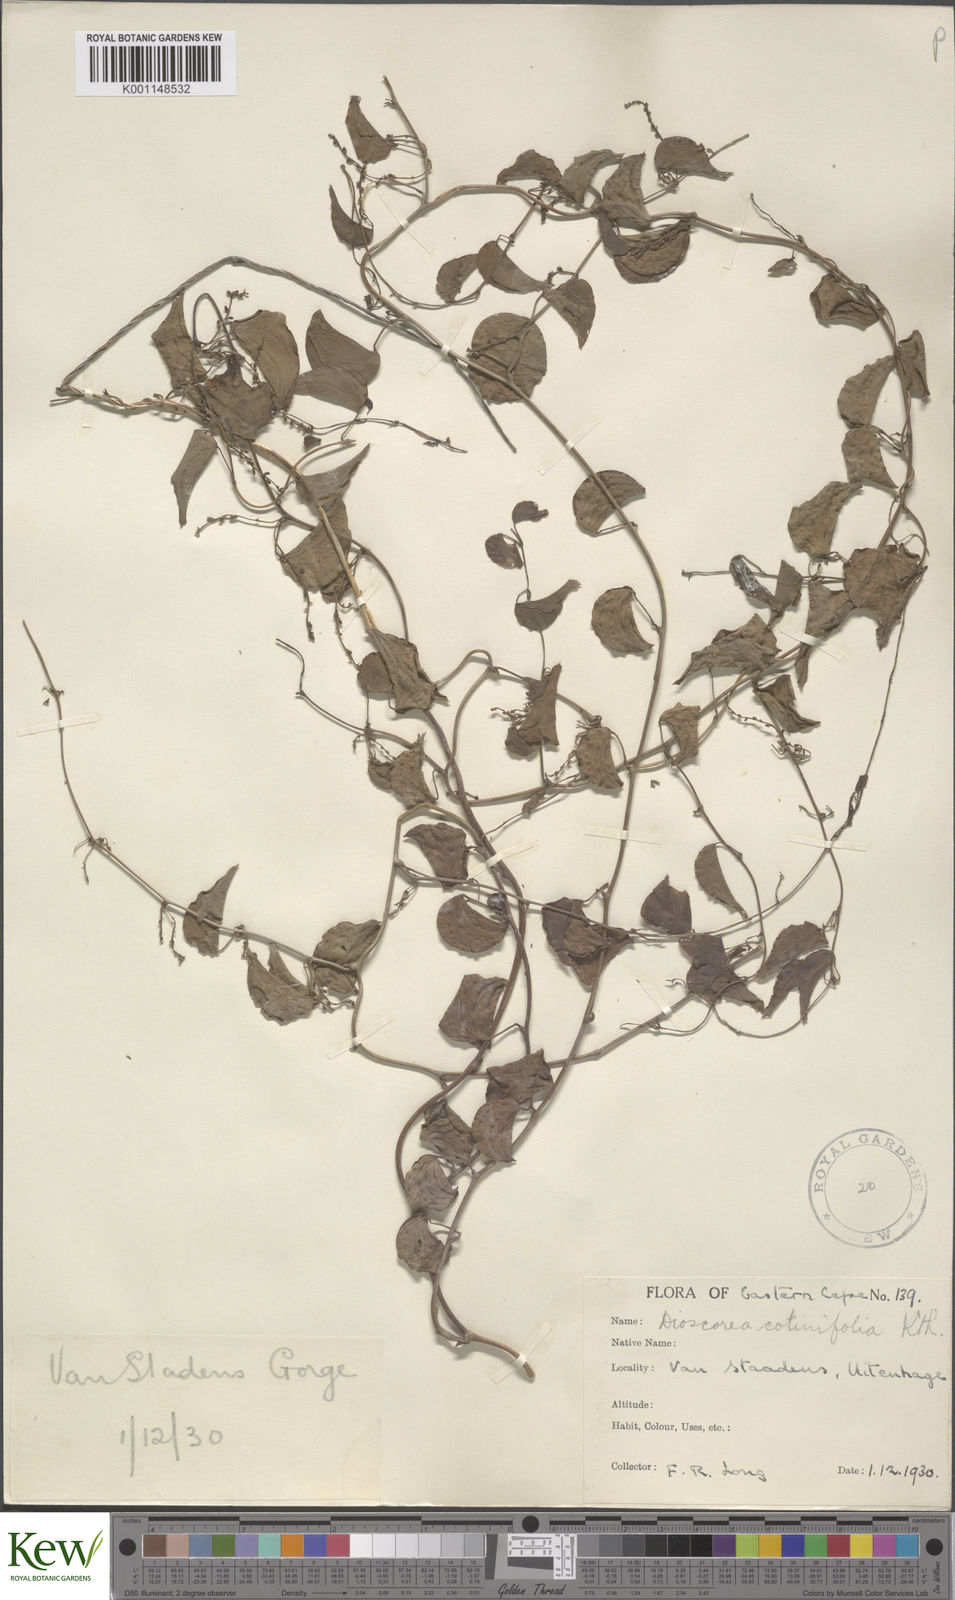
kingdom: Plantae
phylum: Tracheophyta
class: Liliopsida
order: Dioscoreales
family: Dioscoreaceae
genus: Dioscorea
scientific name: Dioscorea cotinifolia
